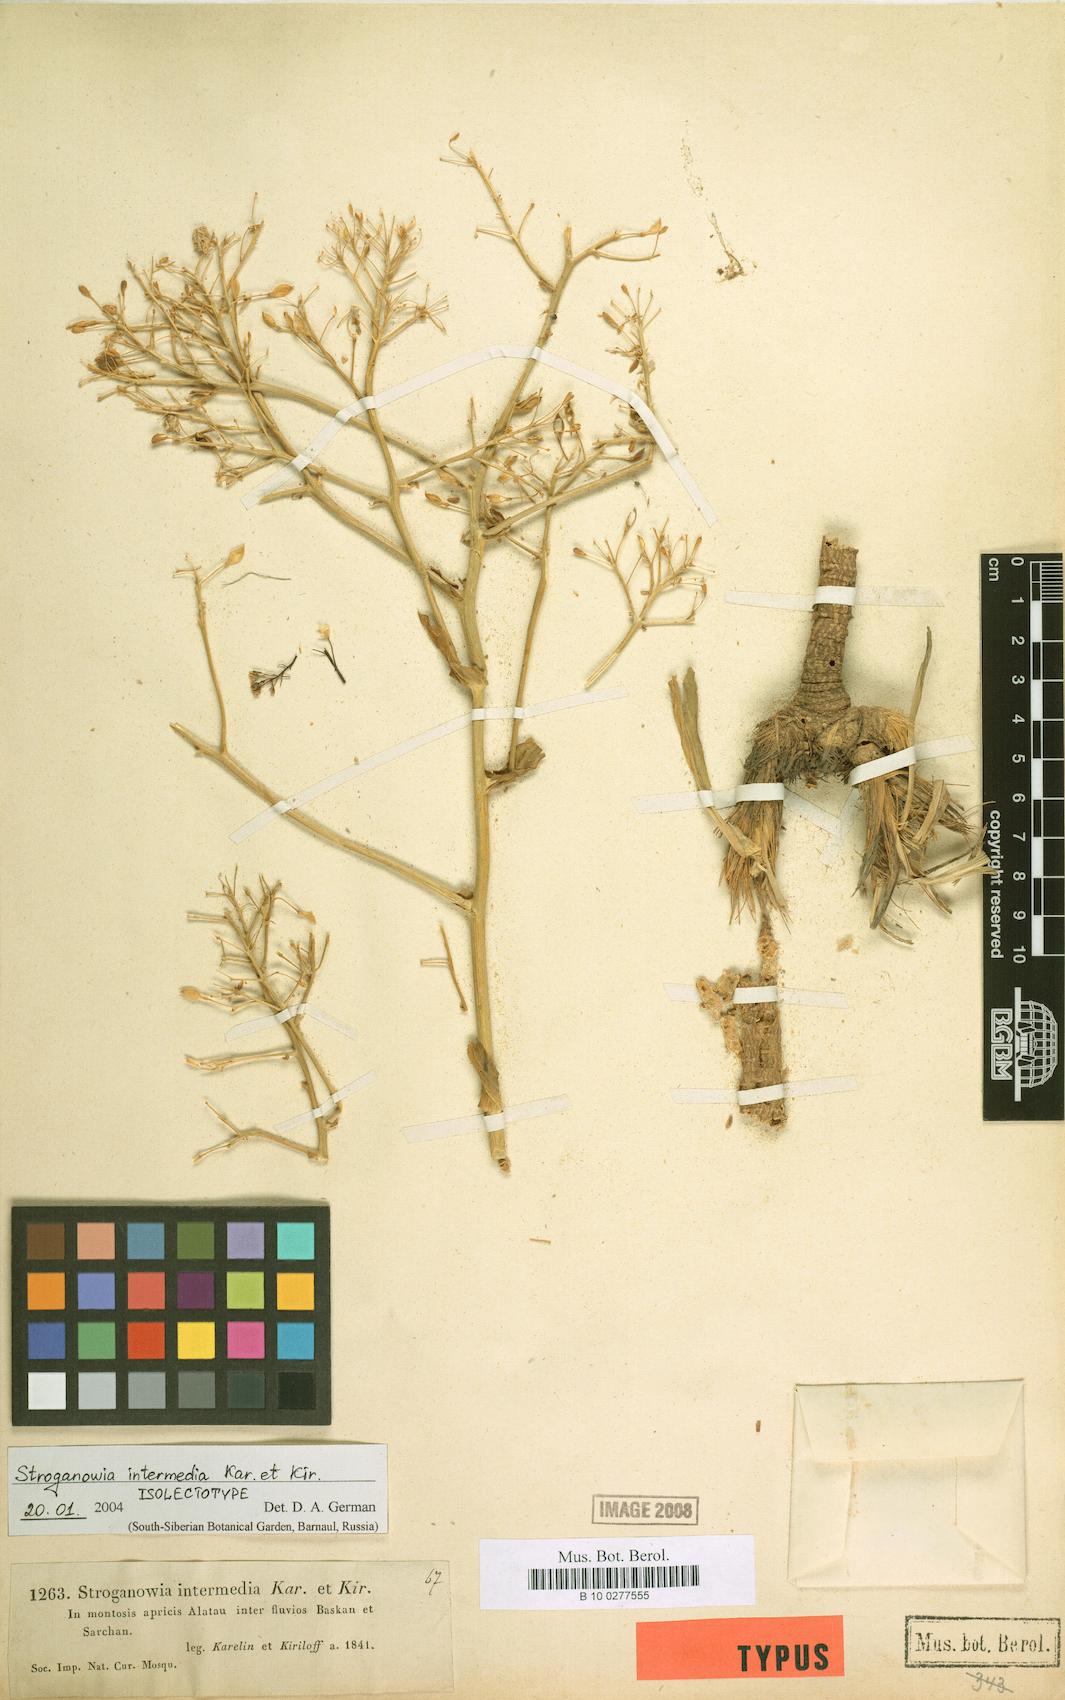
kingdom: Plantae
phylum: Tracheophyta
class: Magnoliopsida
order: Brassicales
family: Brassicaceae
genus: Lepidium
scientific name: Lepidium karelinianum
